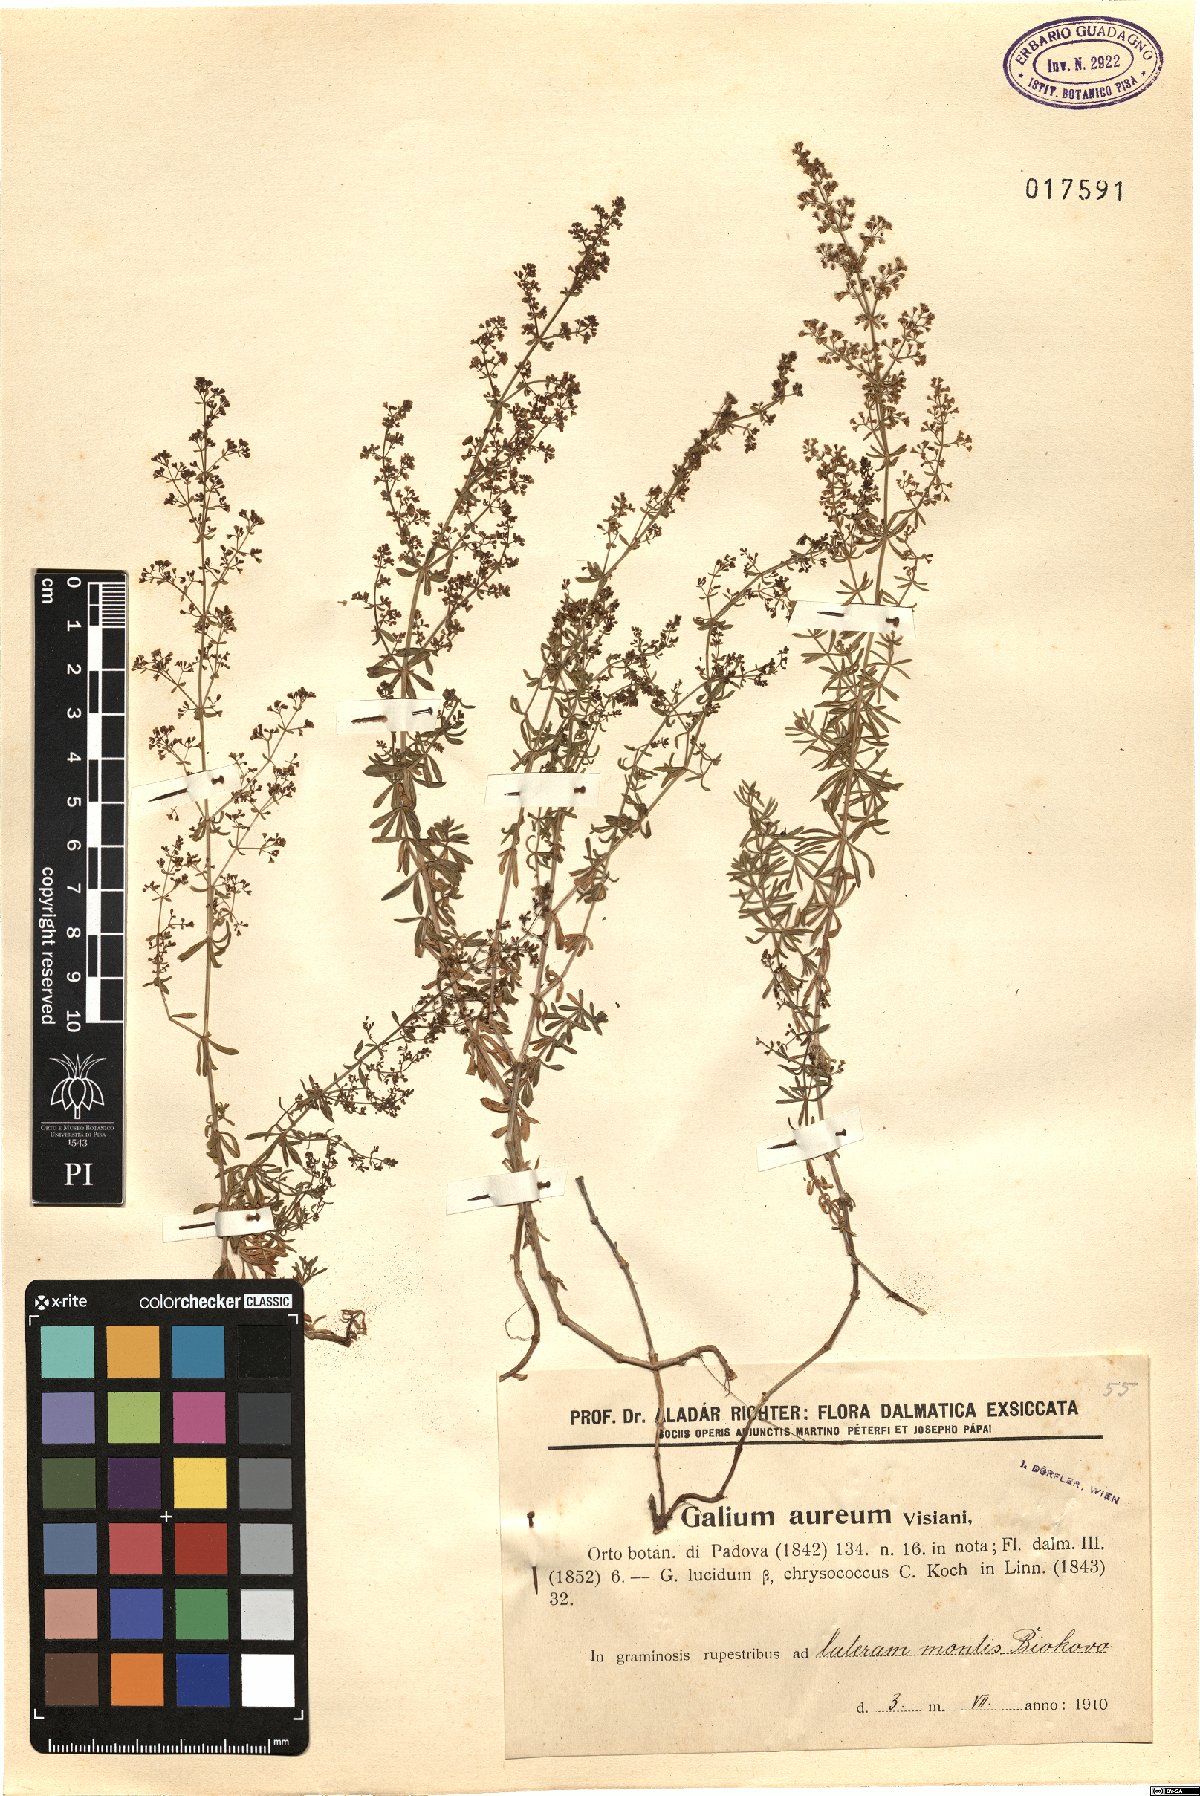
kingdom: Plantae
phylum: Tracheophyta
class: Magnoliopsida
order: Gentianales
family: Rubiaceae
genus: Galium
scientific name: Galium firmum
